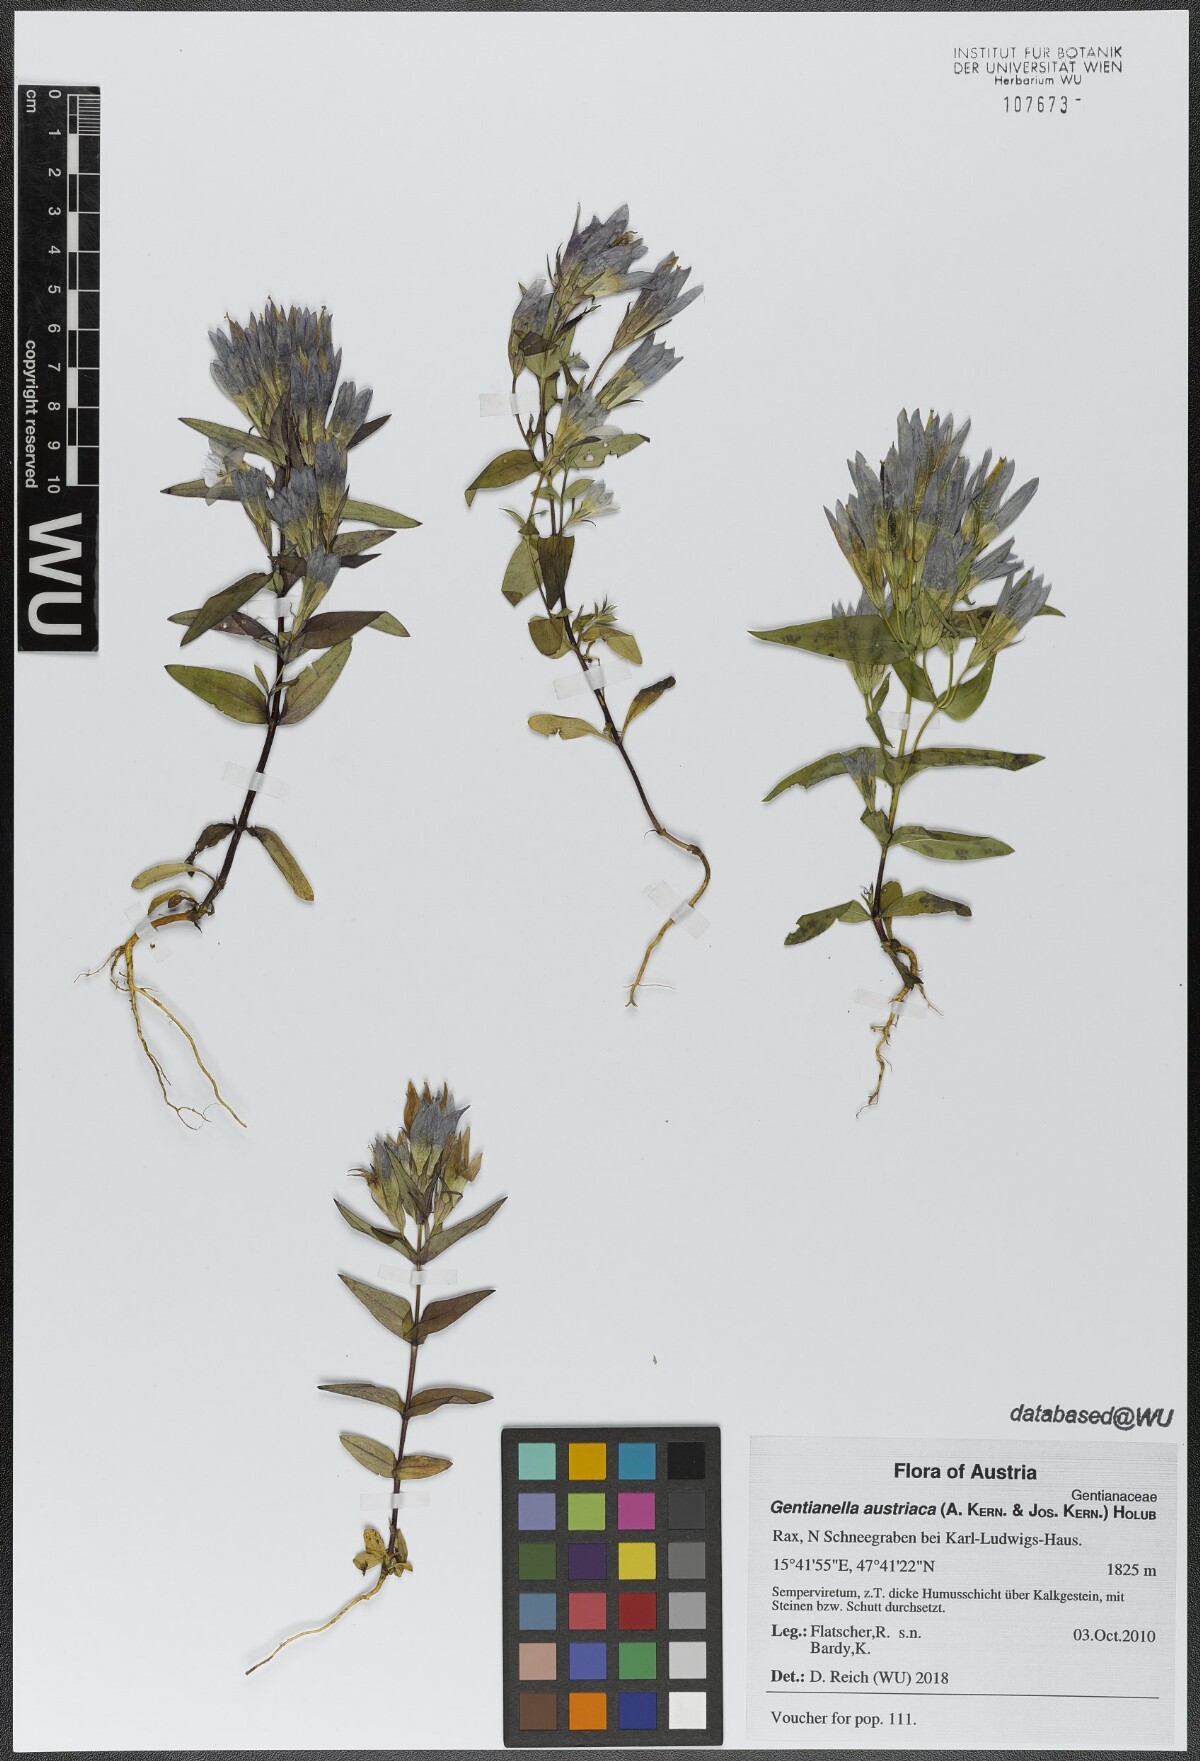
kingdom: Plantae
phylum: Tracheophyta
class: Magnoliopsida
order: Gentianales
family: Gentianaceae
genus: Gentianella
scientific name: Gentianella austriaca
